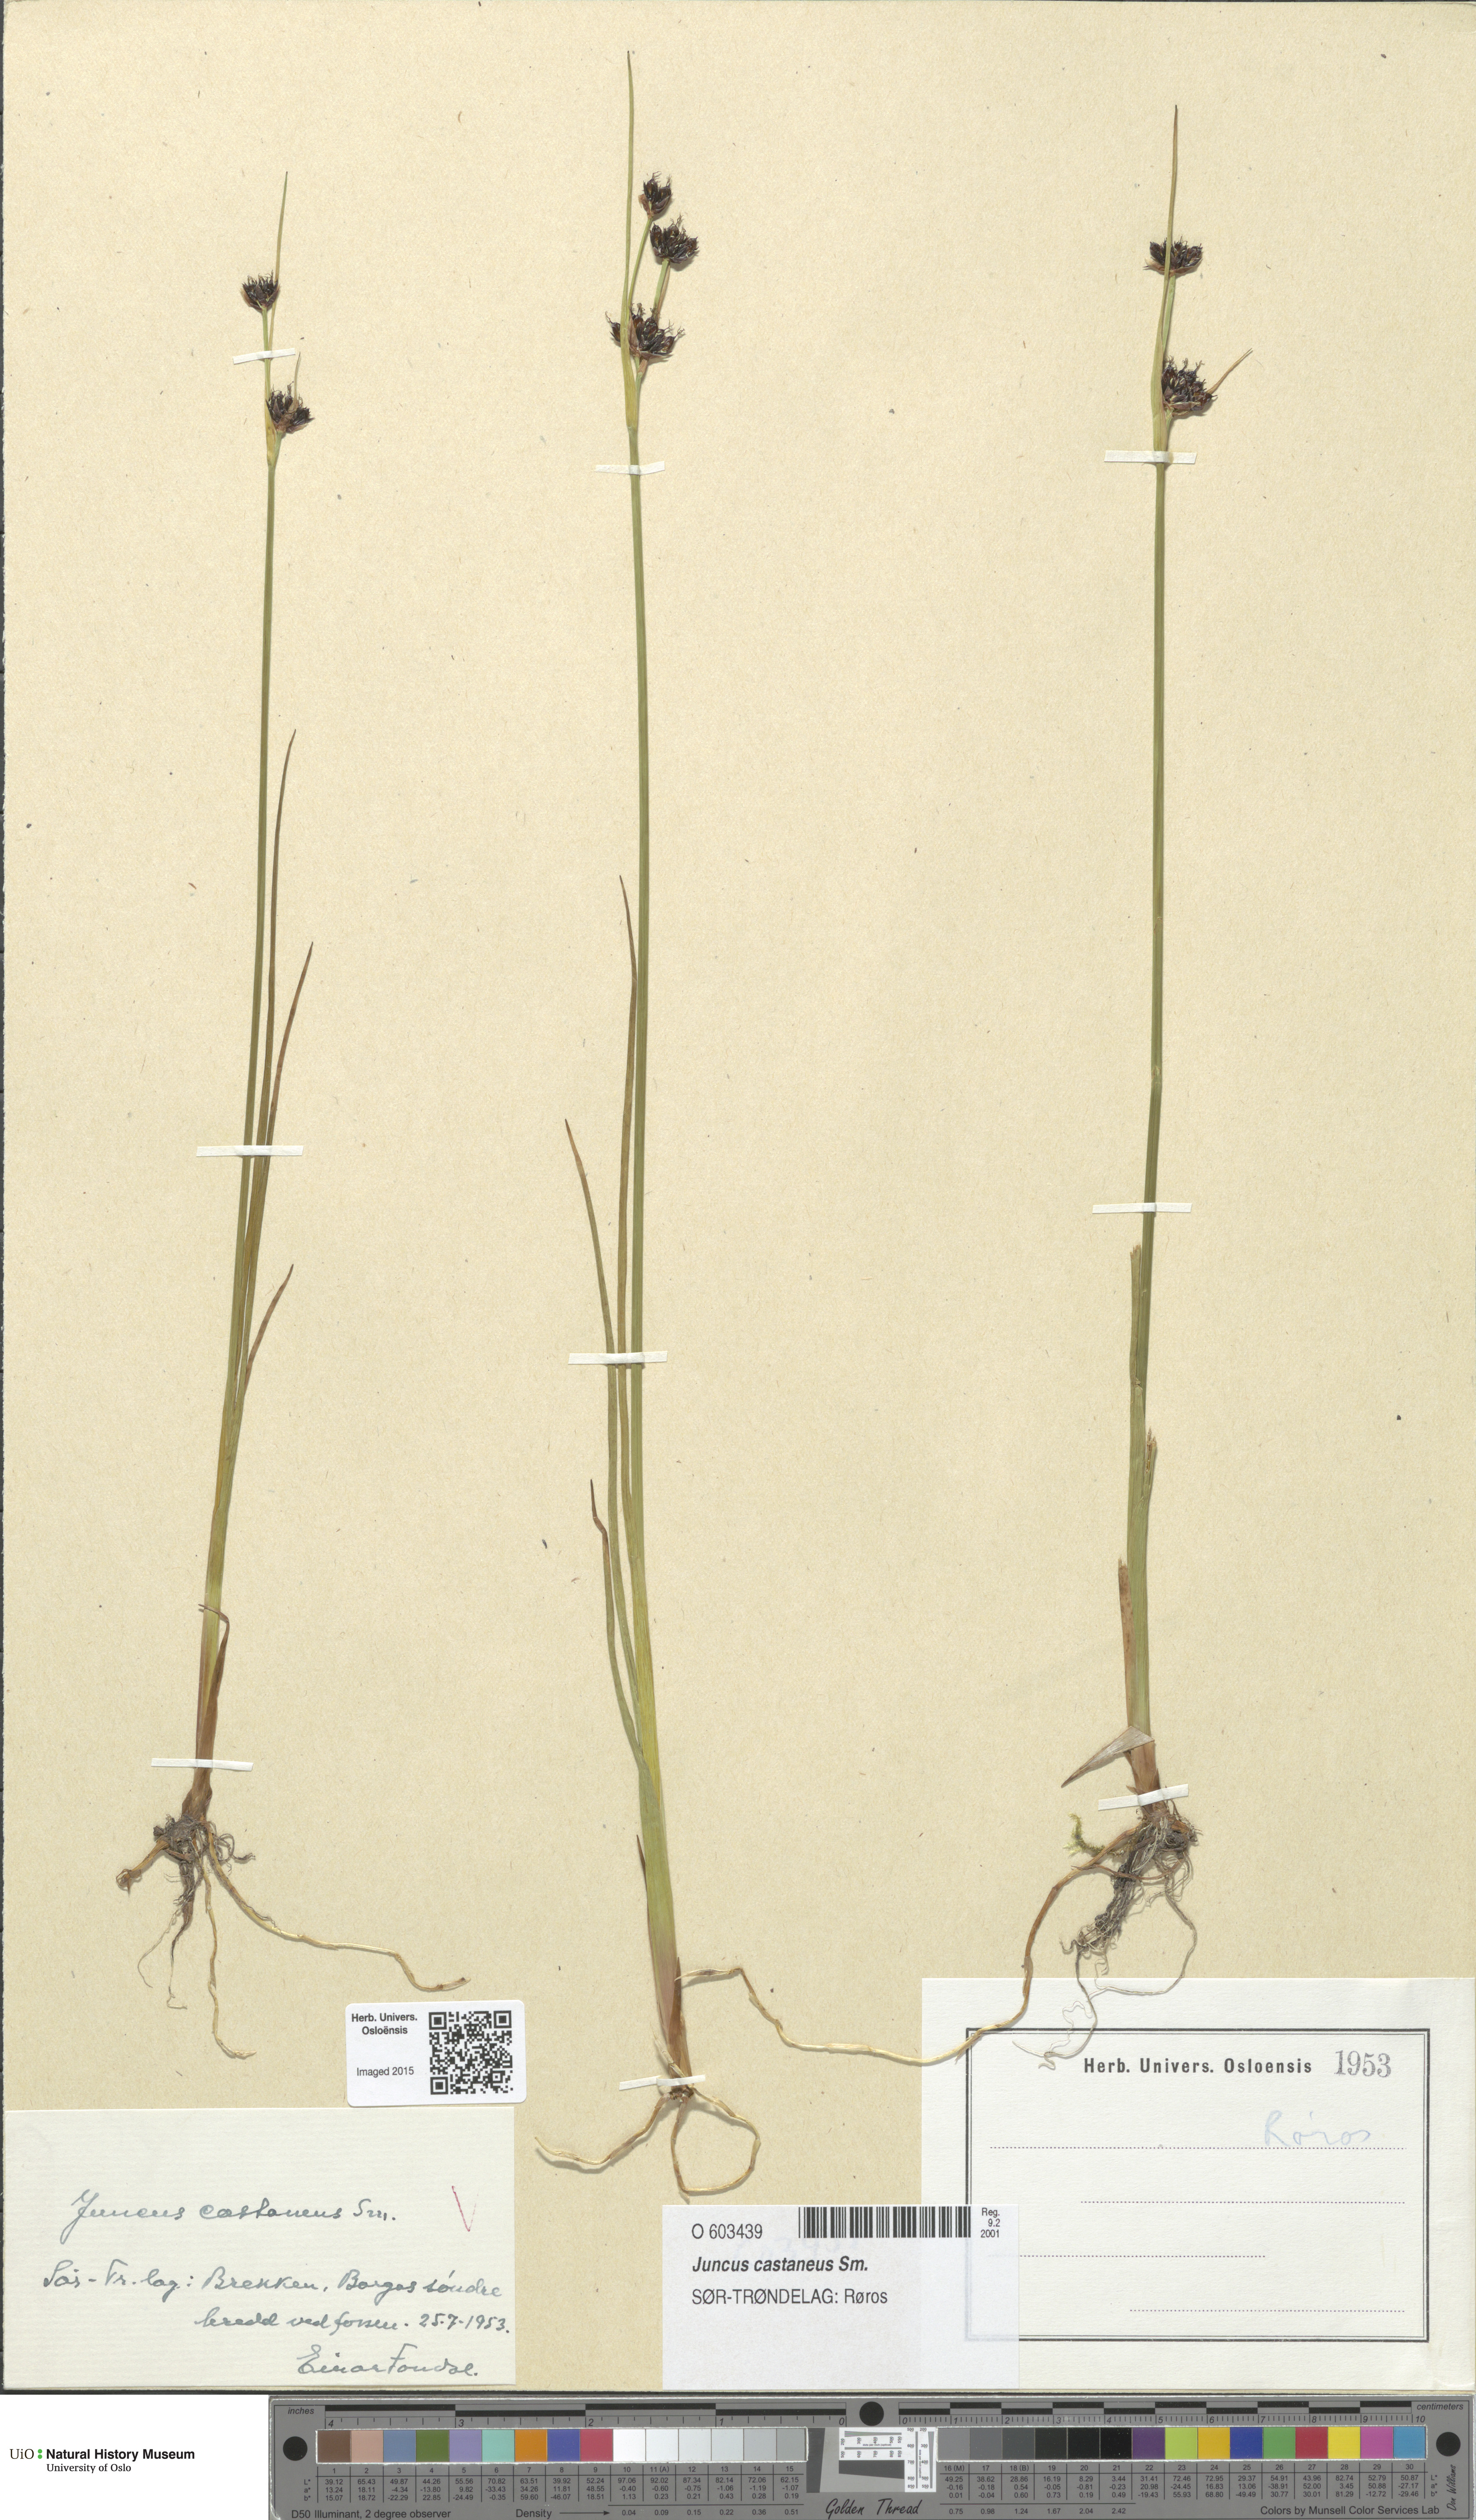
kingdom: Plantae
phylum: Tracheophyta
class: Liliopsida
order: Poales
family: Juncaceae
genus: Juncus
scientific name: Juncus castaneus
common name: Chestnut rush
